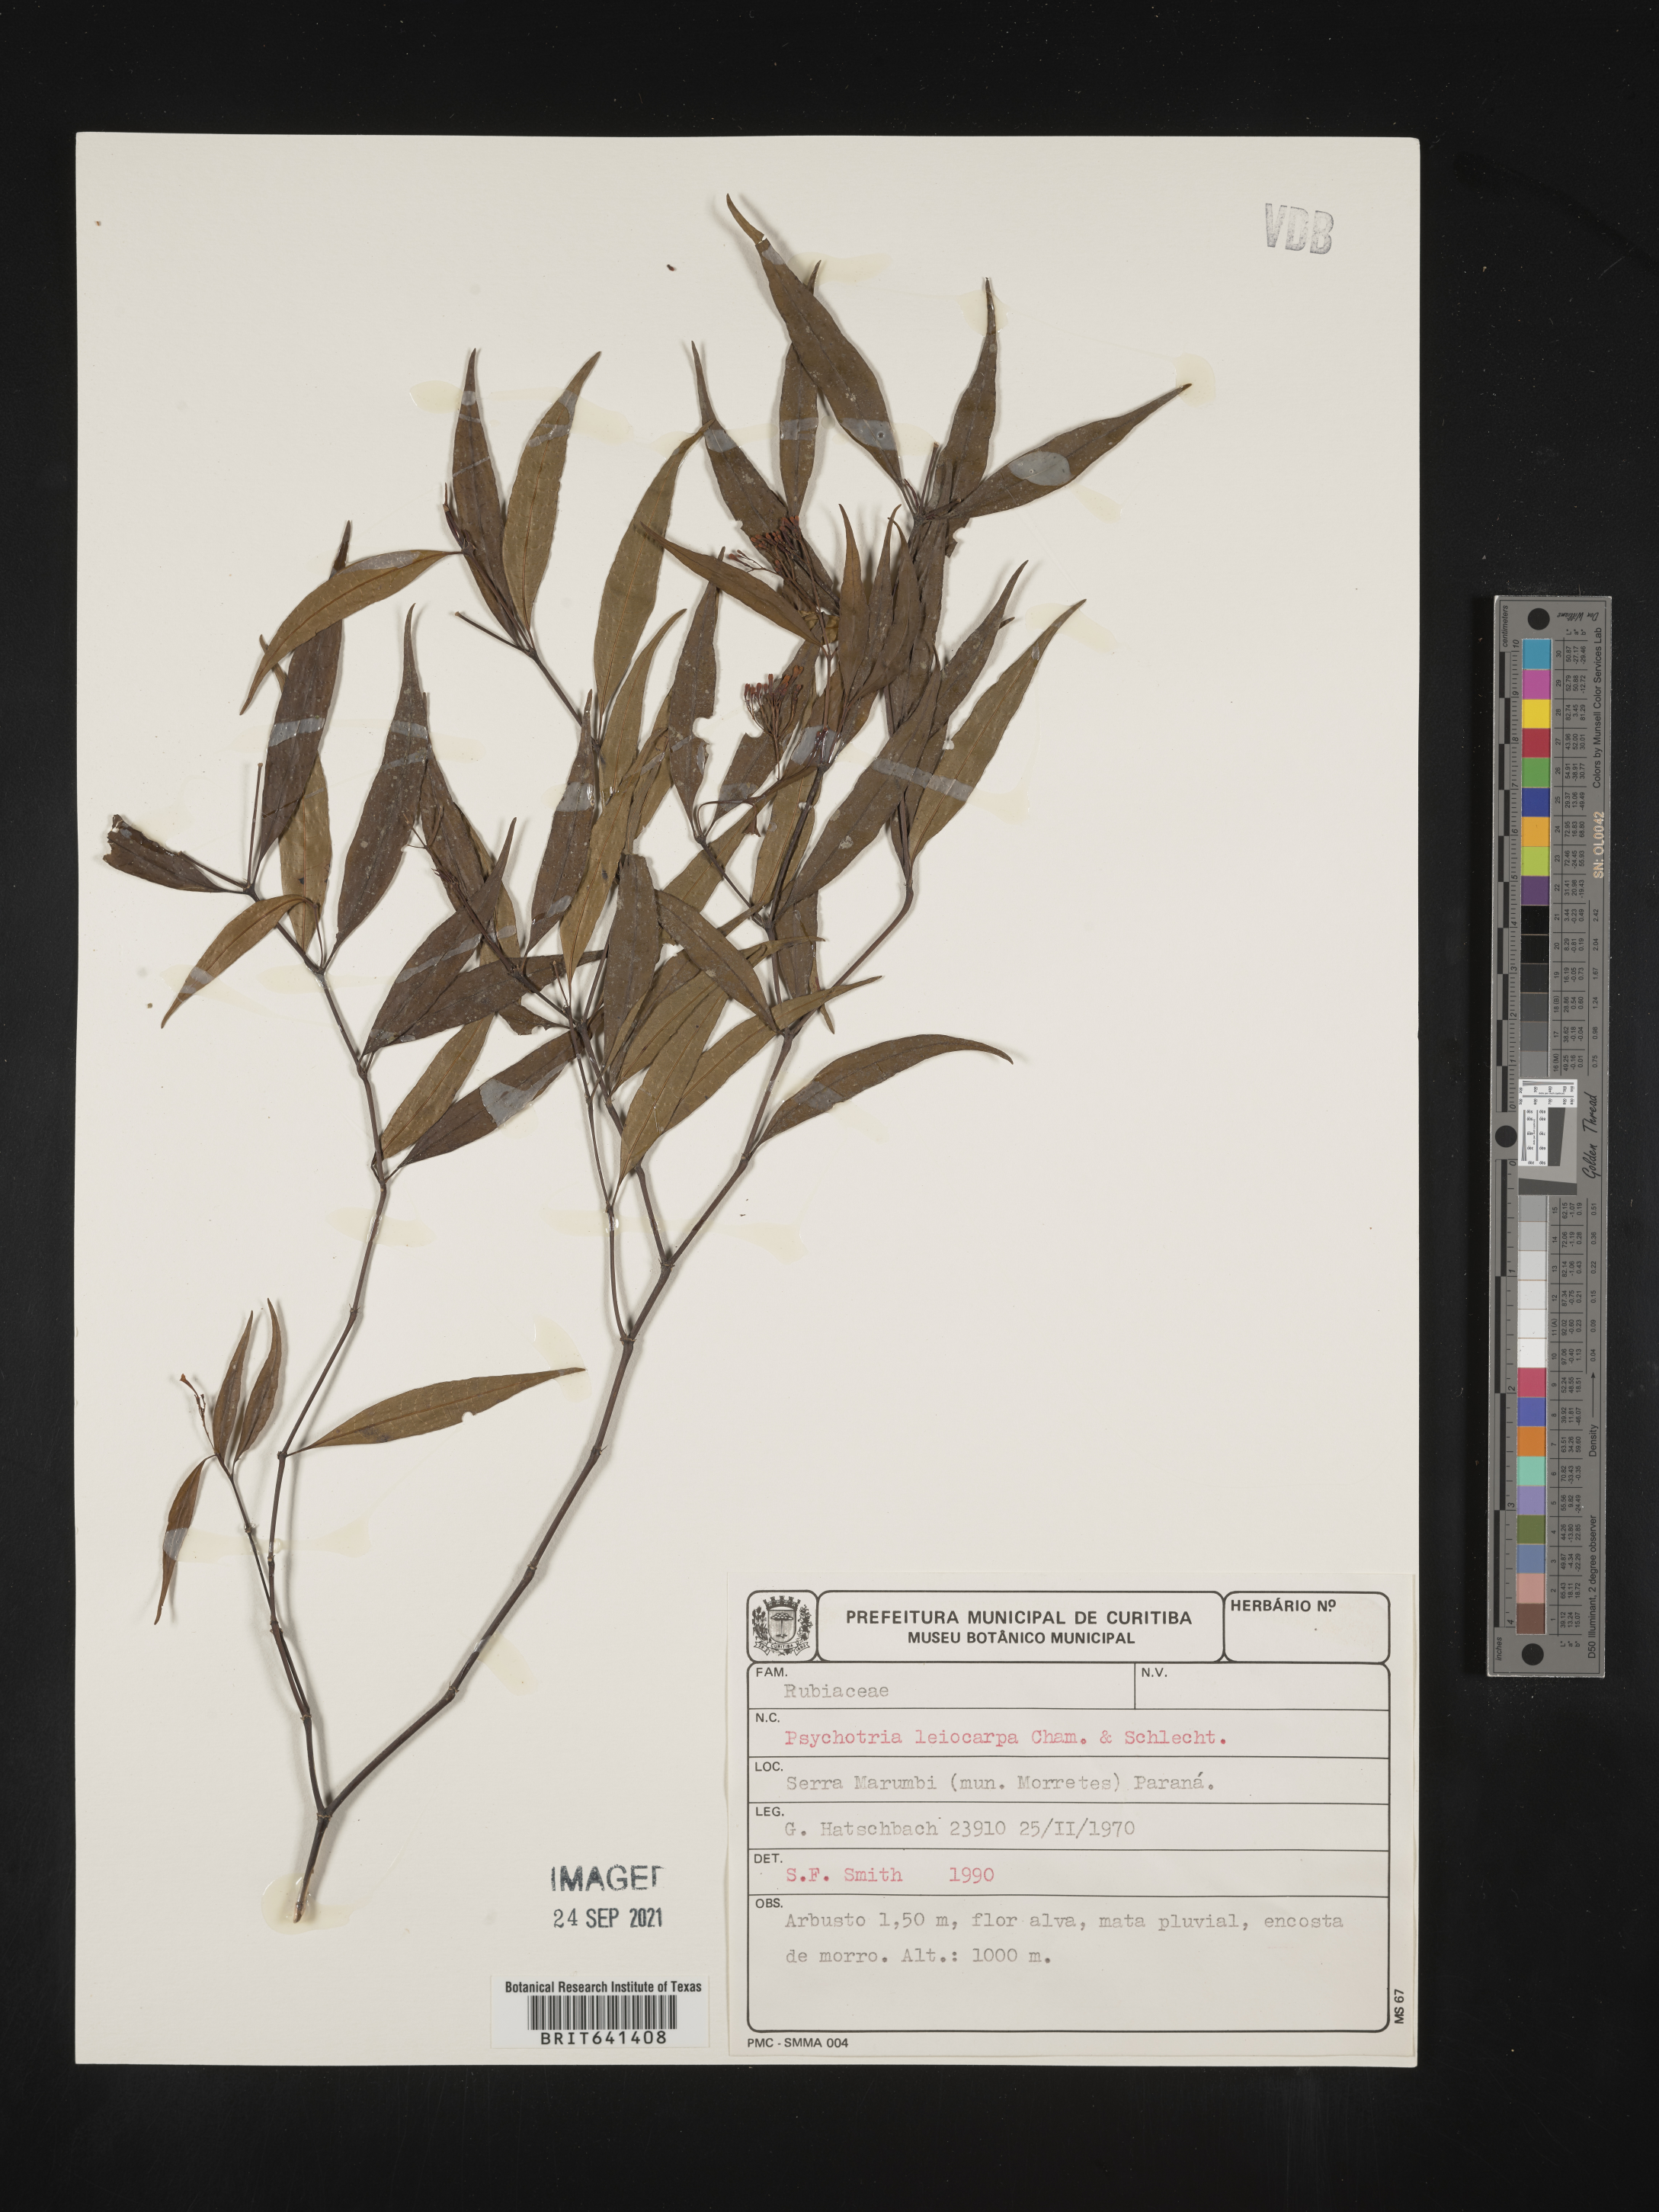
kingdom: Plantae
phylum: Tracheophyta
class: Magnoliopsida
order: Gentianales
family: Rubiaceae
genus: Psychotria
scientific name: Psychotria
